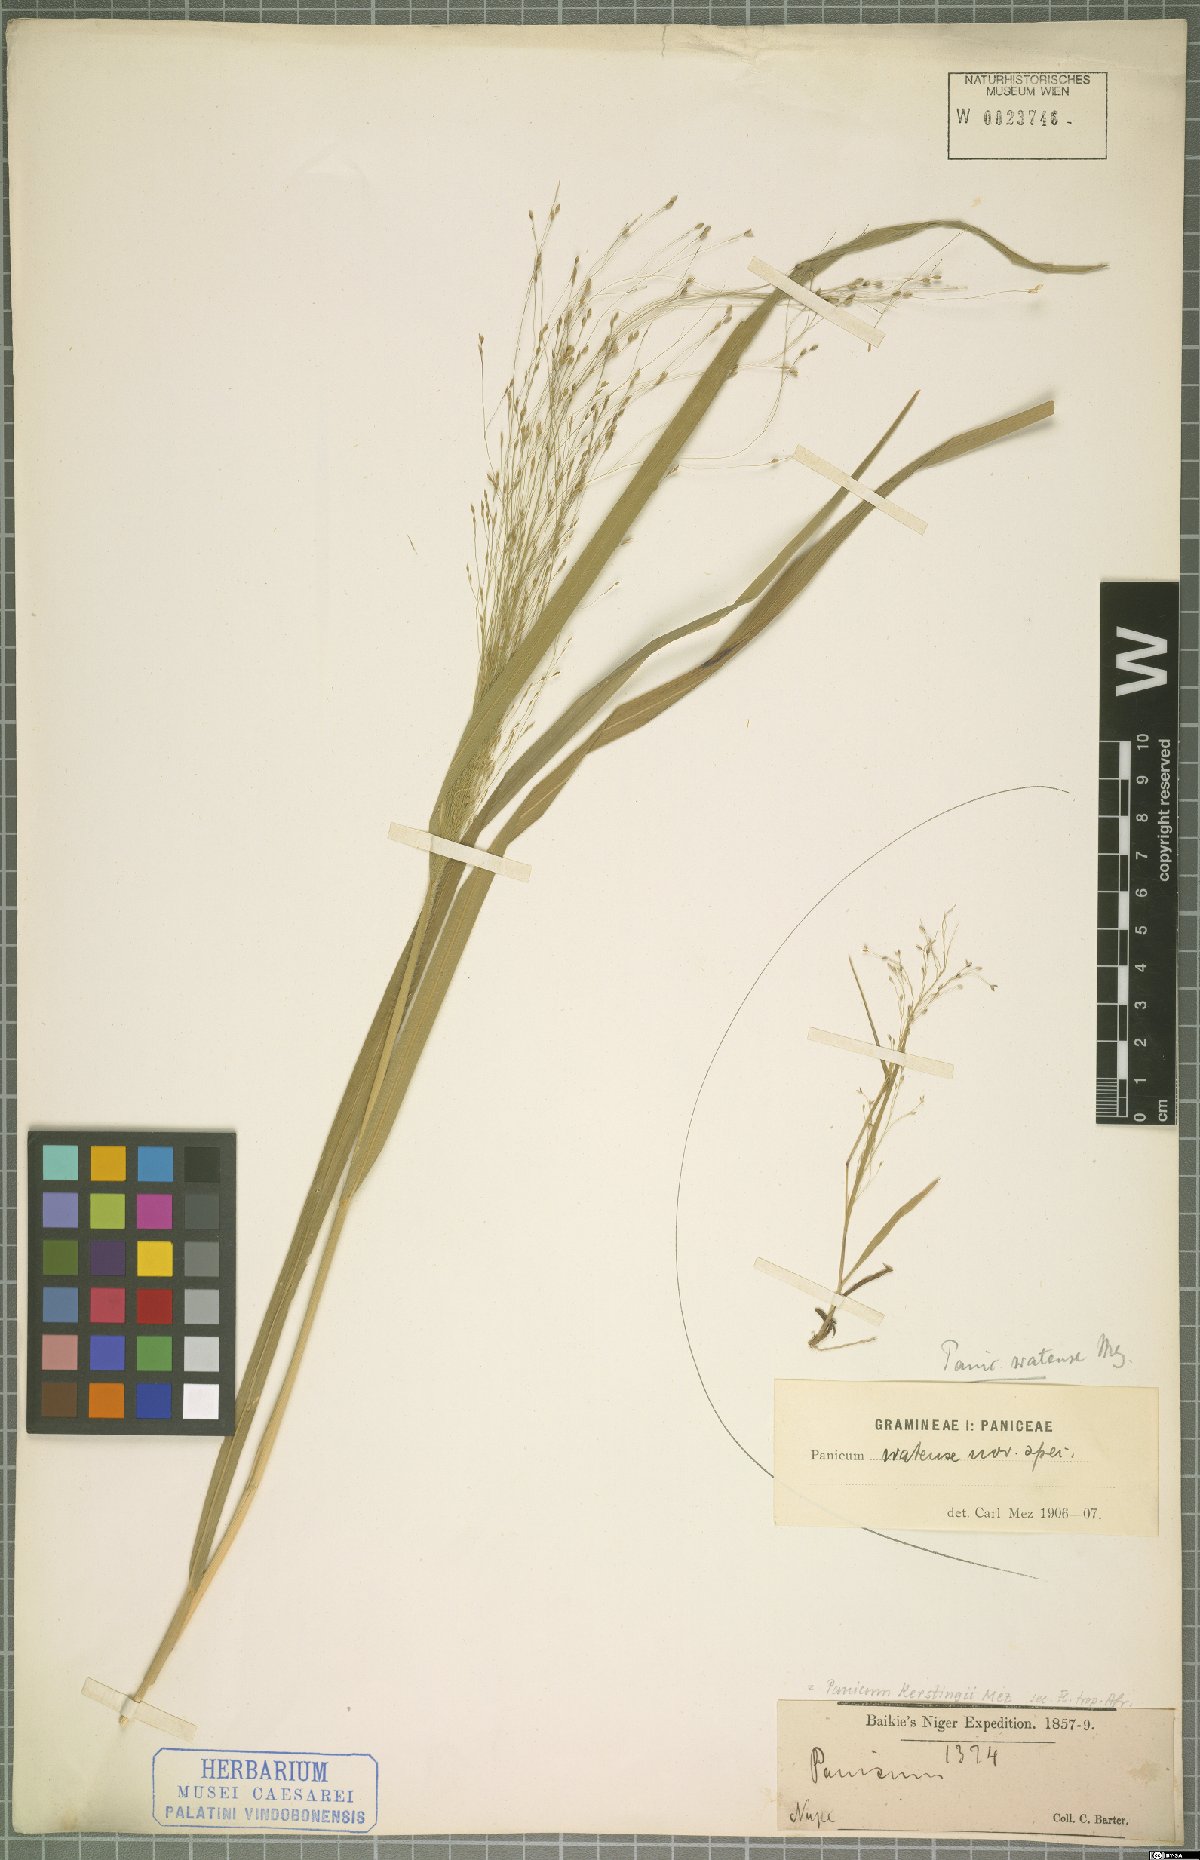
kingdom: Plantae
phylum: Tracheophyta
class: Liliopsida
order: Poales
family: Poaceae
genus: Panicum
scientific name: Panicum pansum
